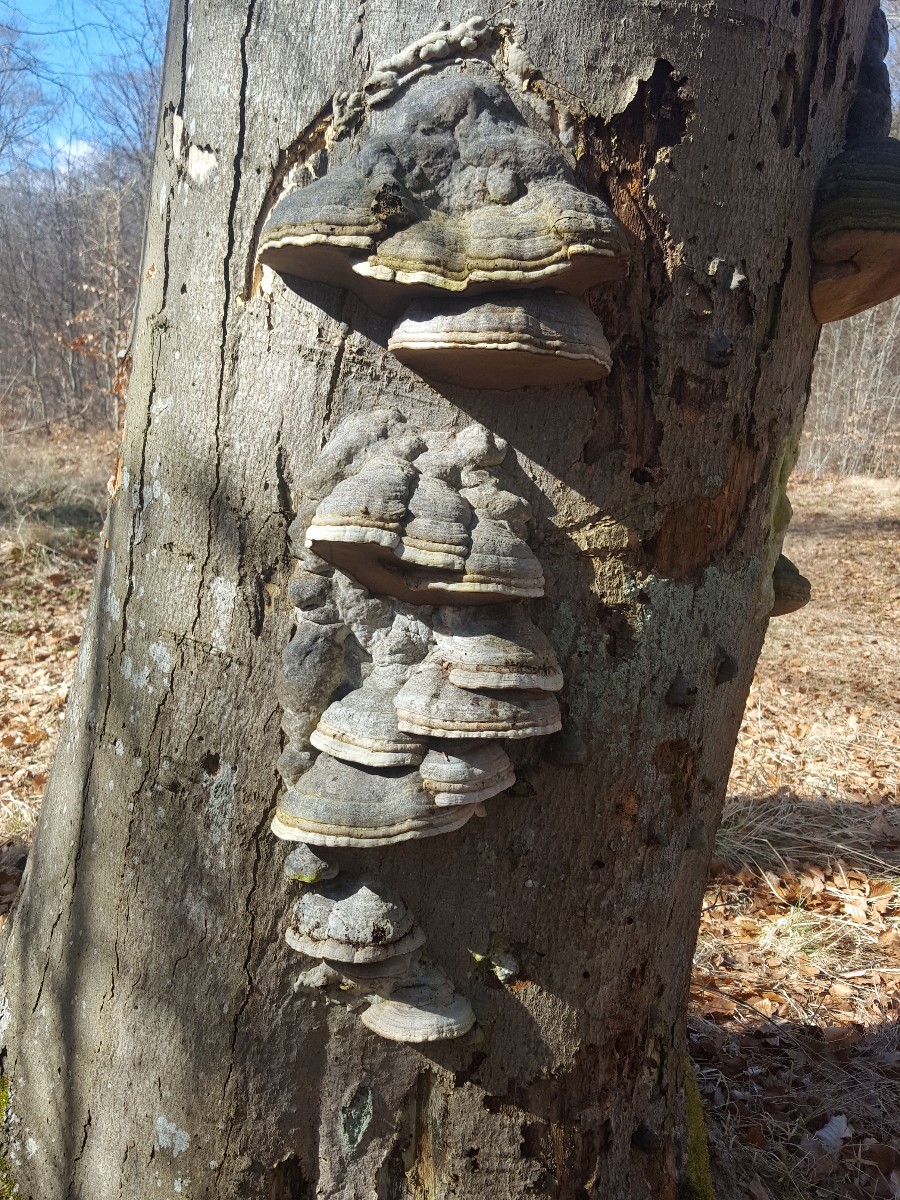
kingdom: Fungi
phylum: Basidiomycota
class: Agaricomycetes
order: Polyporales
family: Polyporaceae
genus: Fomes
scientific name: Fomes fomentarius
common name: tøndersvamp
